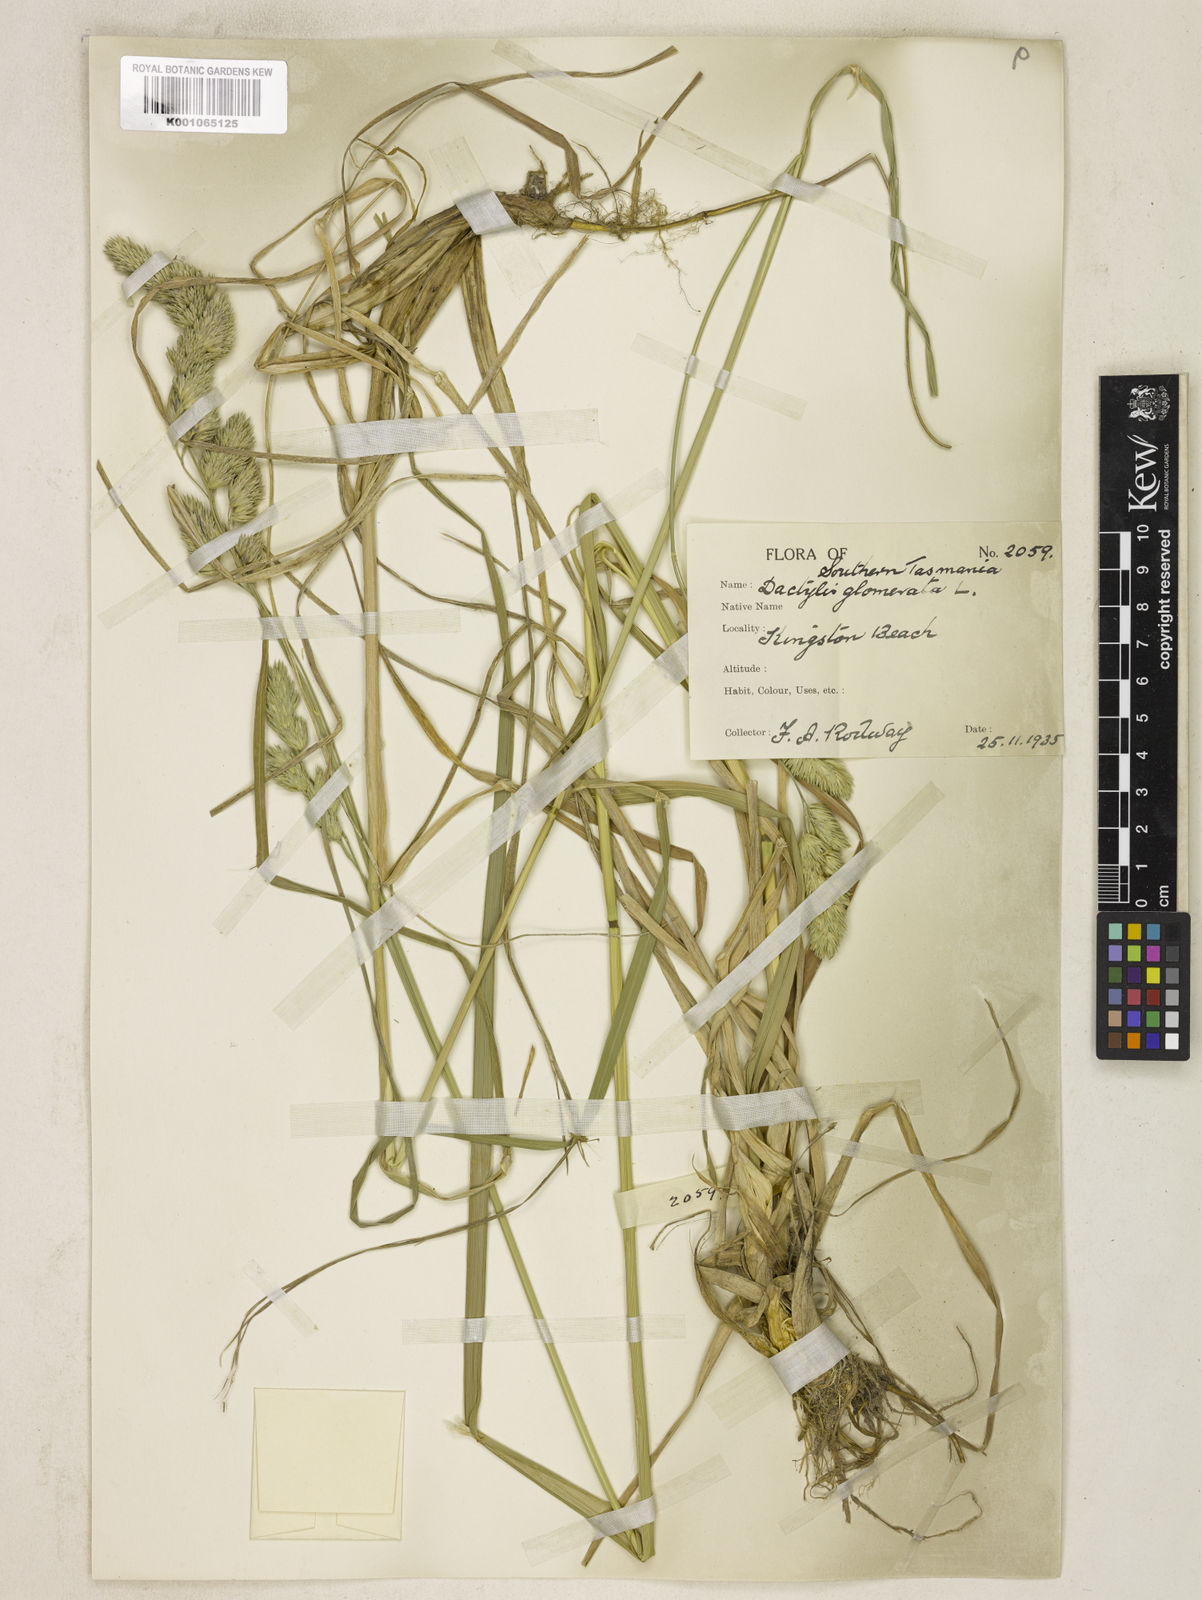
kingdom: Plantae
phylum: Tracheophyta
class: Liliopsida
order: Poales
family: Poaceae
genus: Dactylis
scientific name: Dactylis glomerata
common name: Orchardgrass
